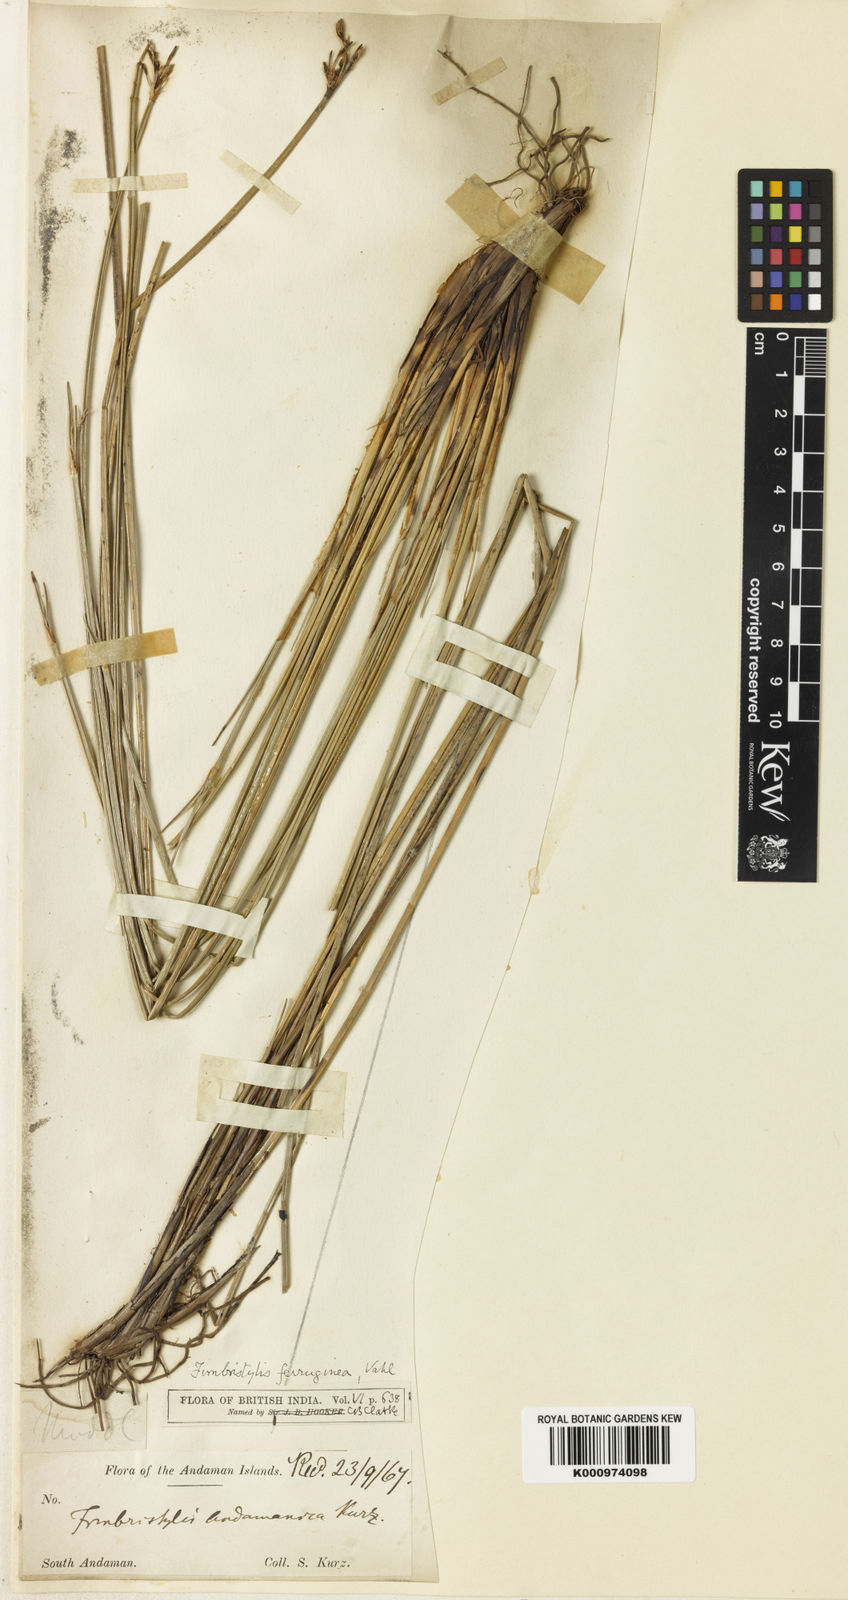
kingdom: Plantae
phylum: Tracheophyta
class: Liliopsida
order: Poales
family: Cyperaceae
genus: Fimbristylis
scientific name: Fimbristylis ferruginea
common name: West indian fimbry
